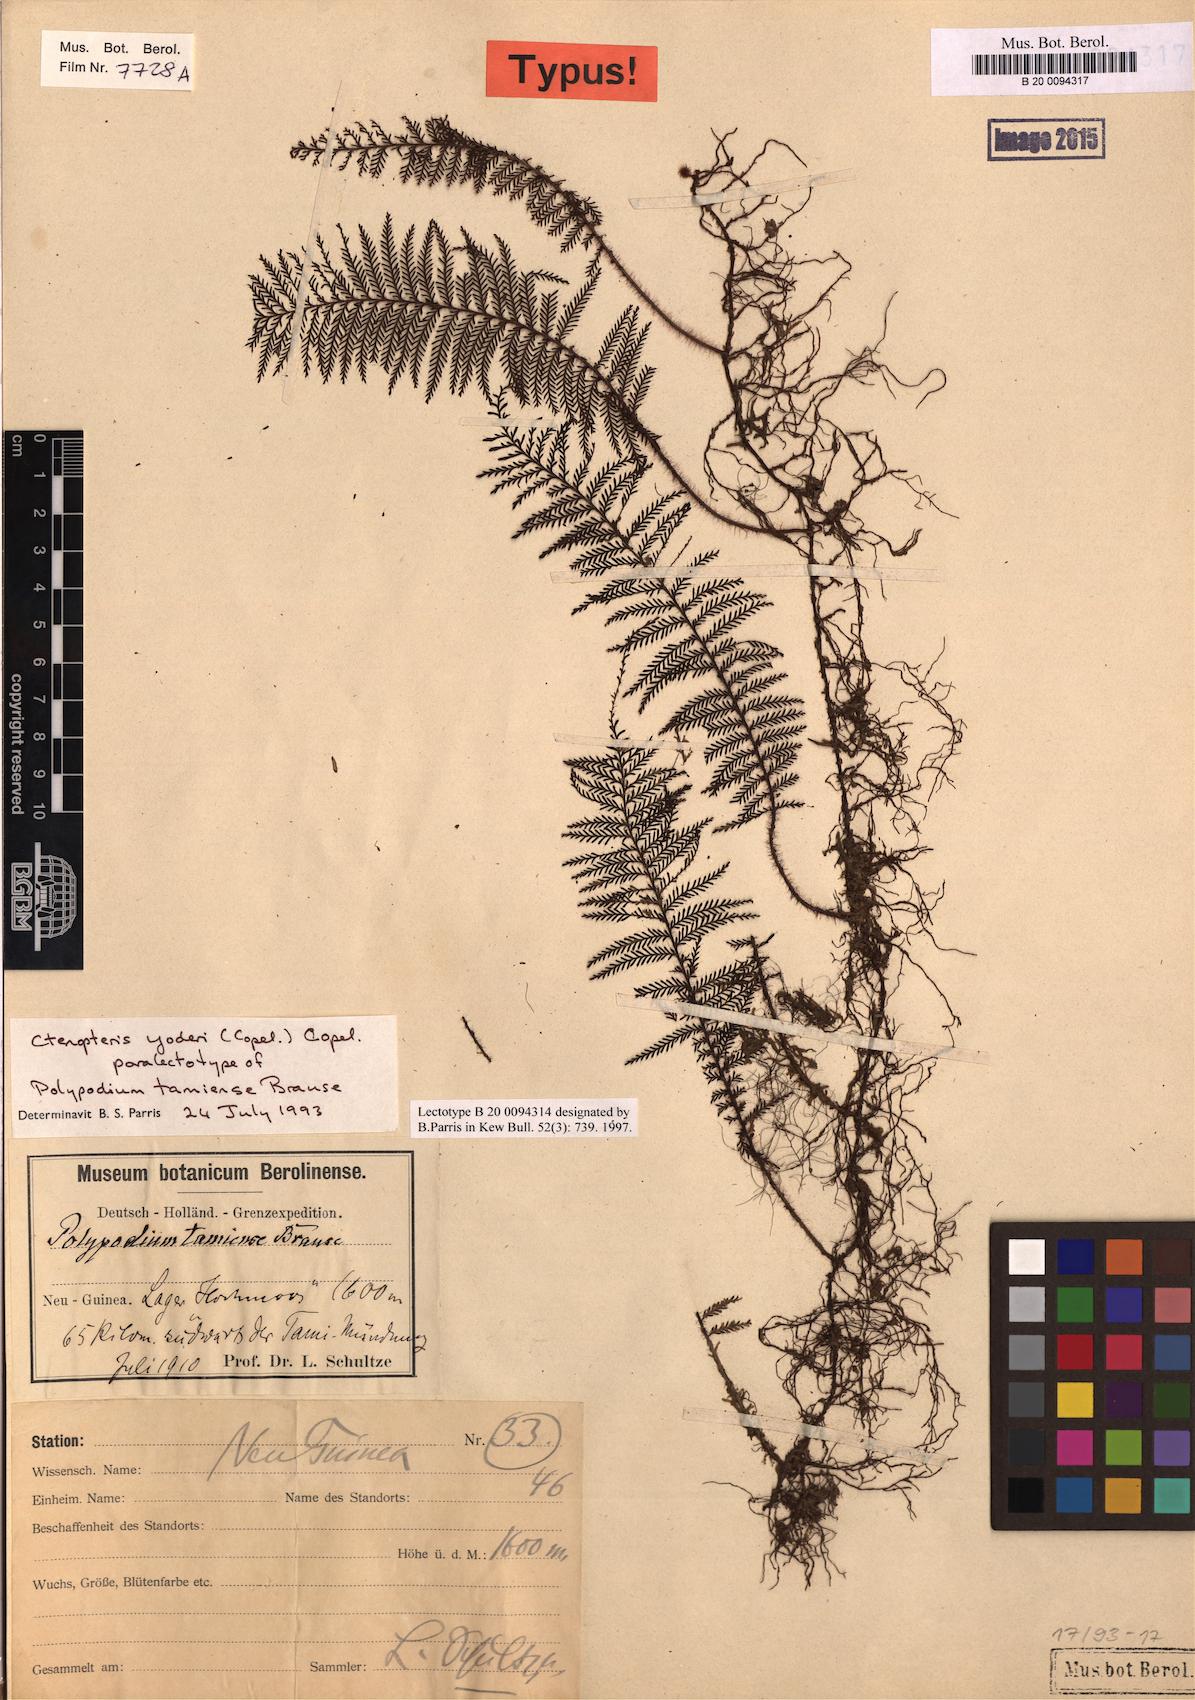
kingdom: Plantae
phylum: Tracheophyta
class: Polypodiopsida
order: Polypodiales
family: Polypodiaceae
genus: Oreogrammitis
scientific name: Oreogrammitis yoderi
